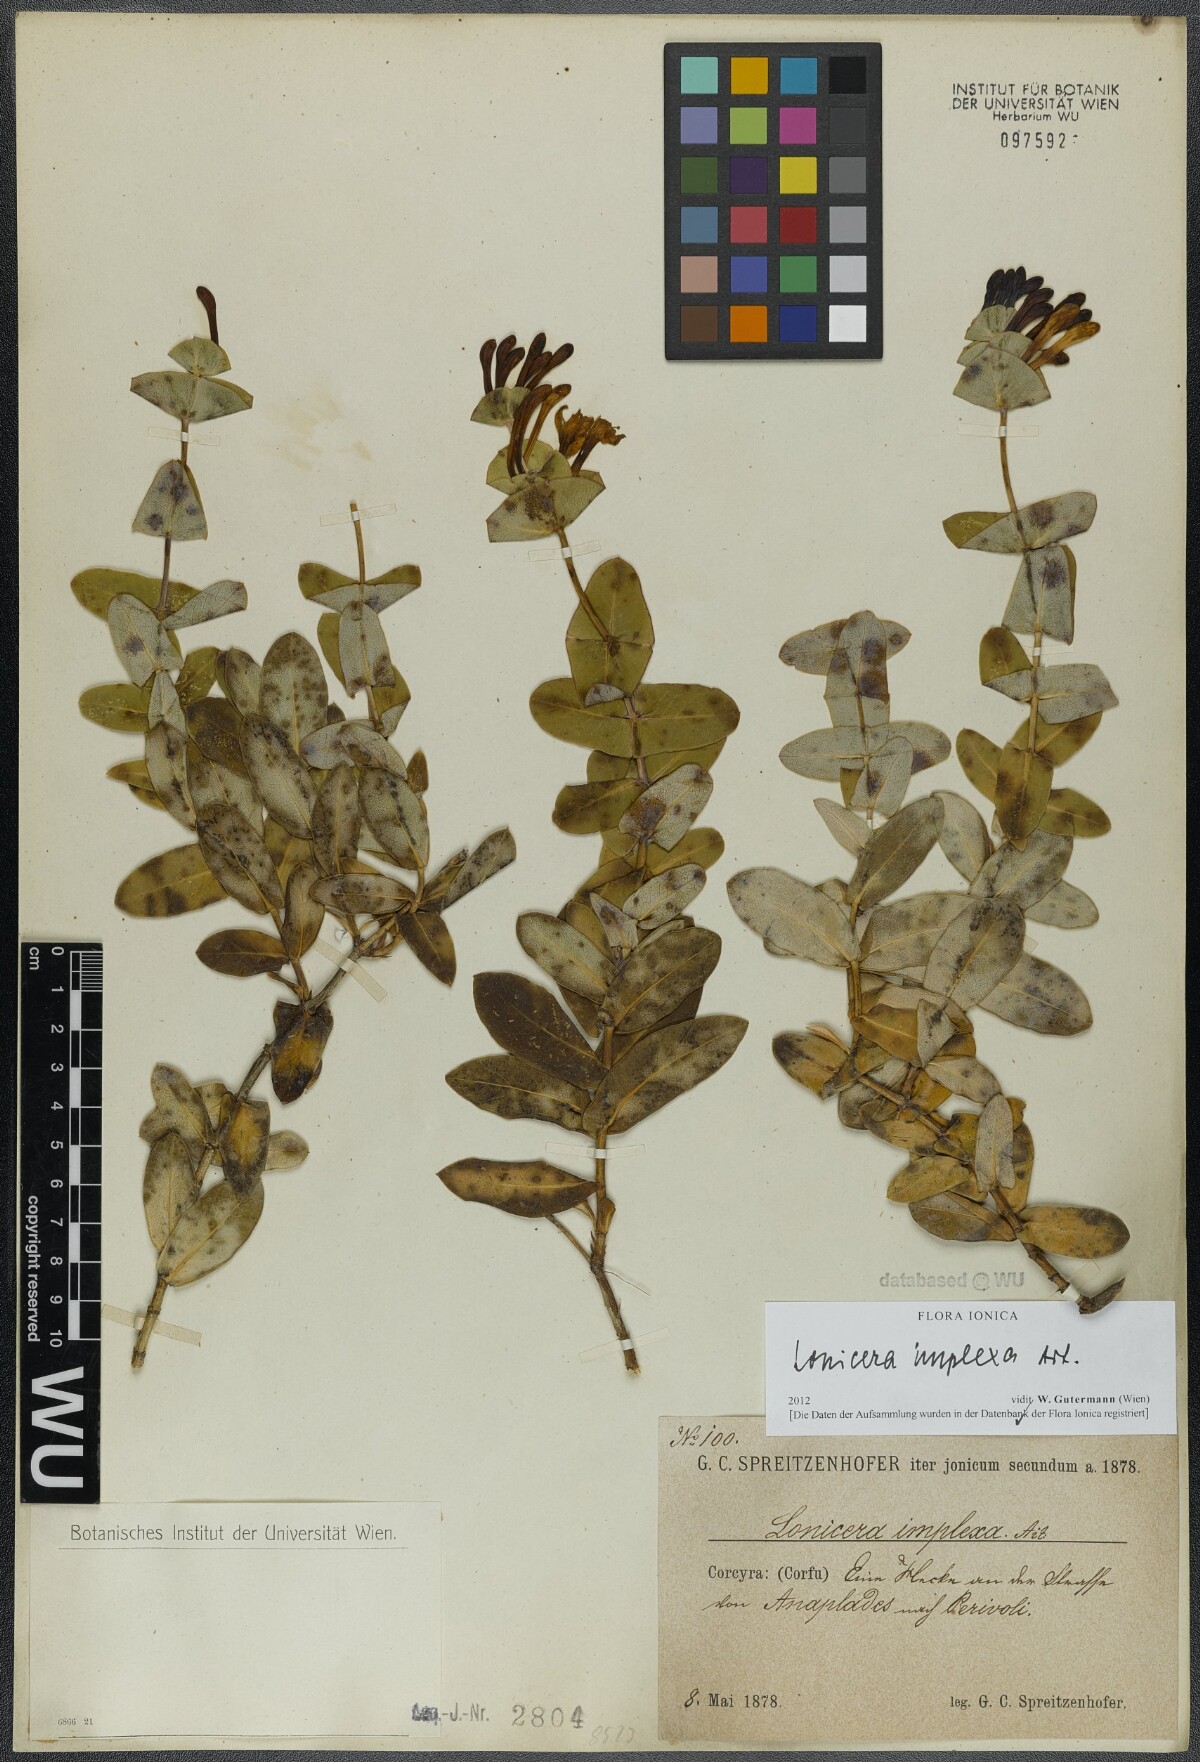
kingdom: Plantae
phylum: Tracheophyta
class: Magnoliopsida
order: Dipsacales
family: Caprifoliaceae
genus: Lonicera
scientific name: Lonicera implexa
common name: Minorca honeysuckle
